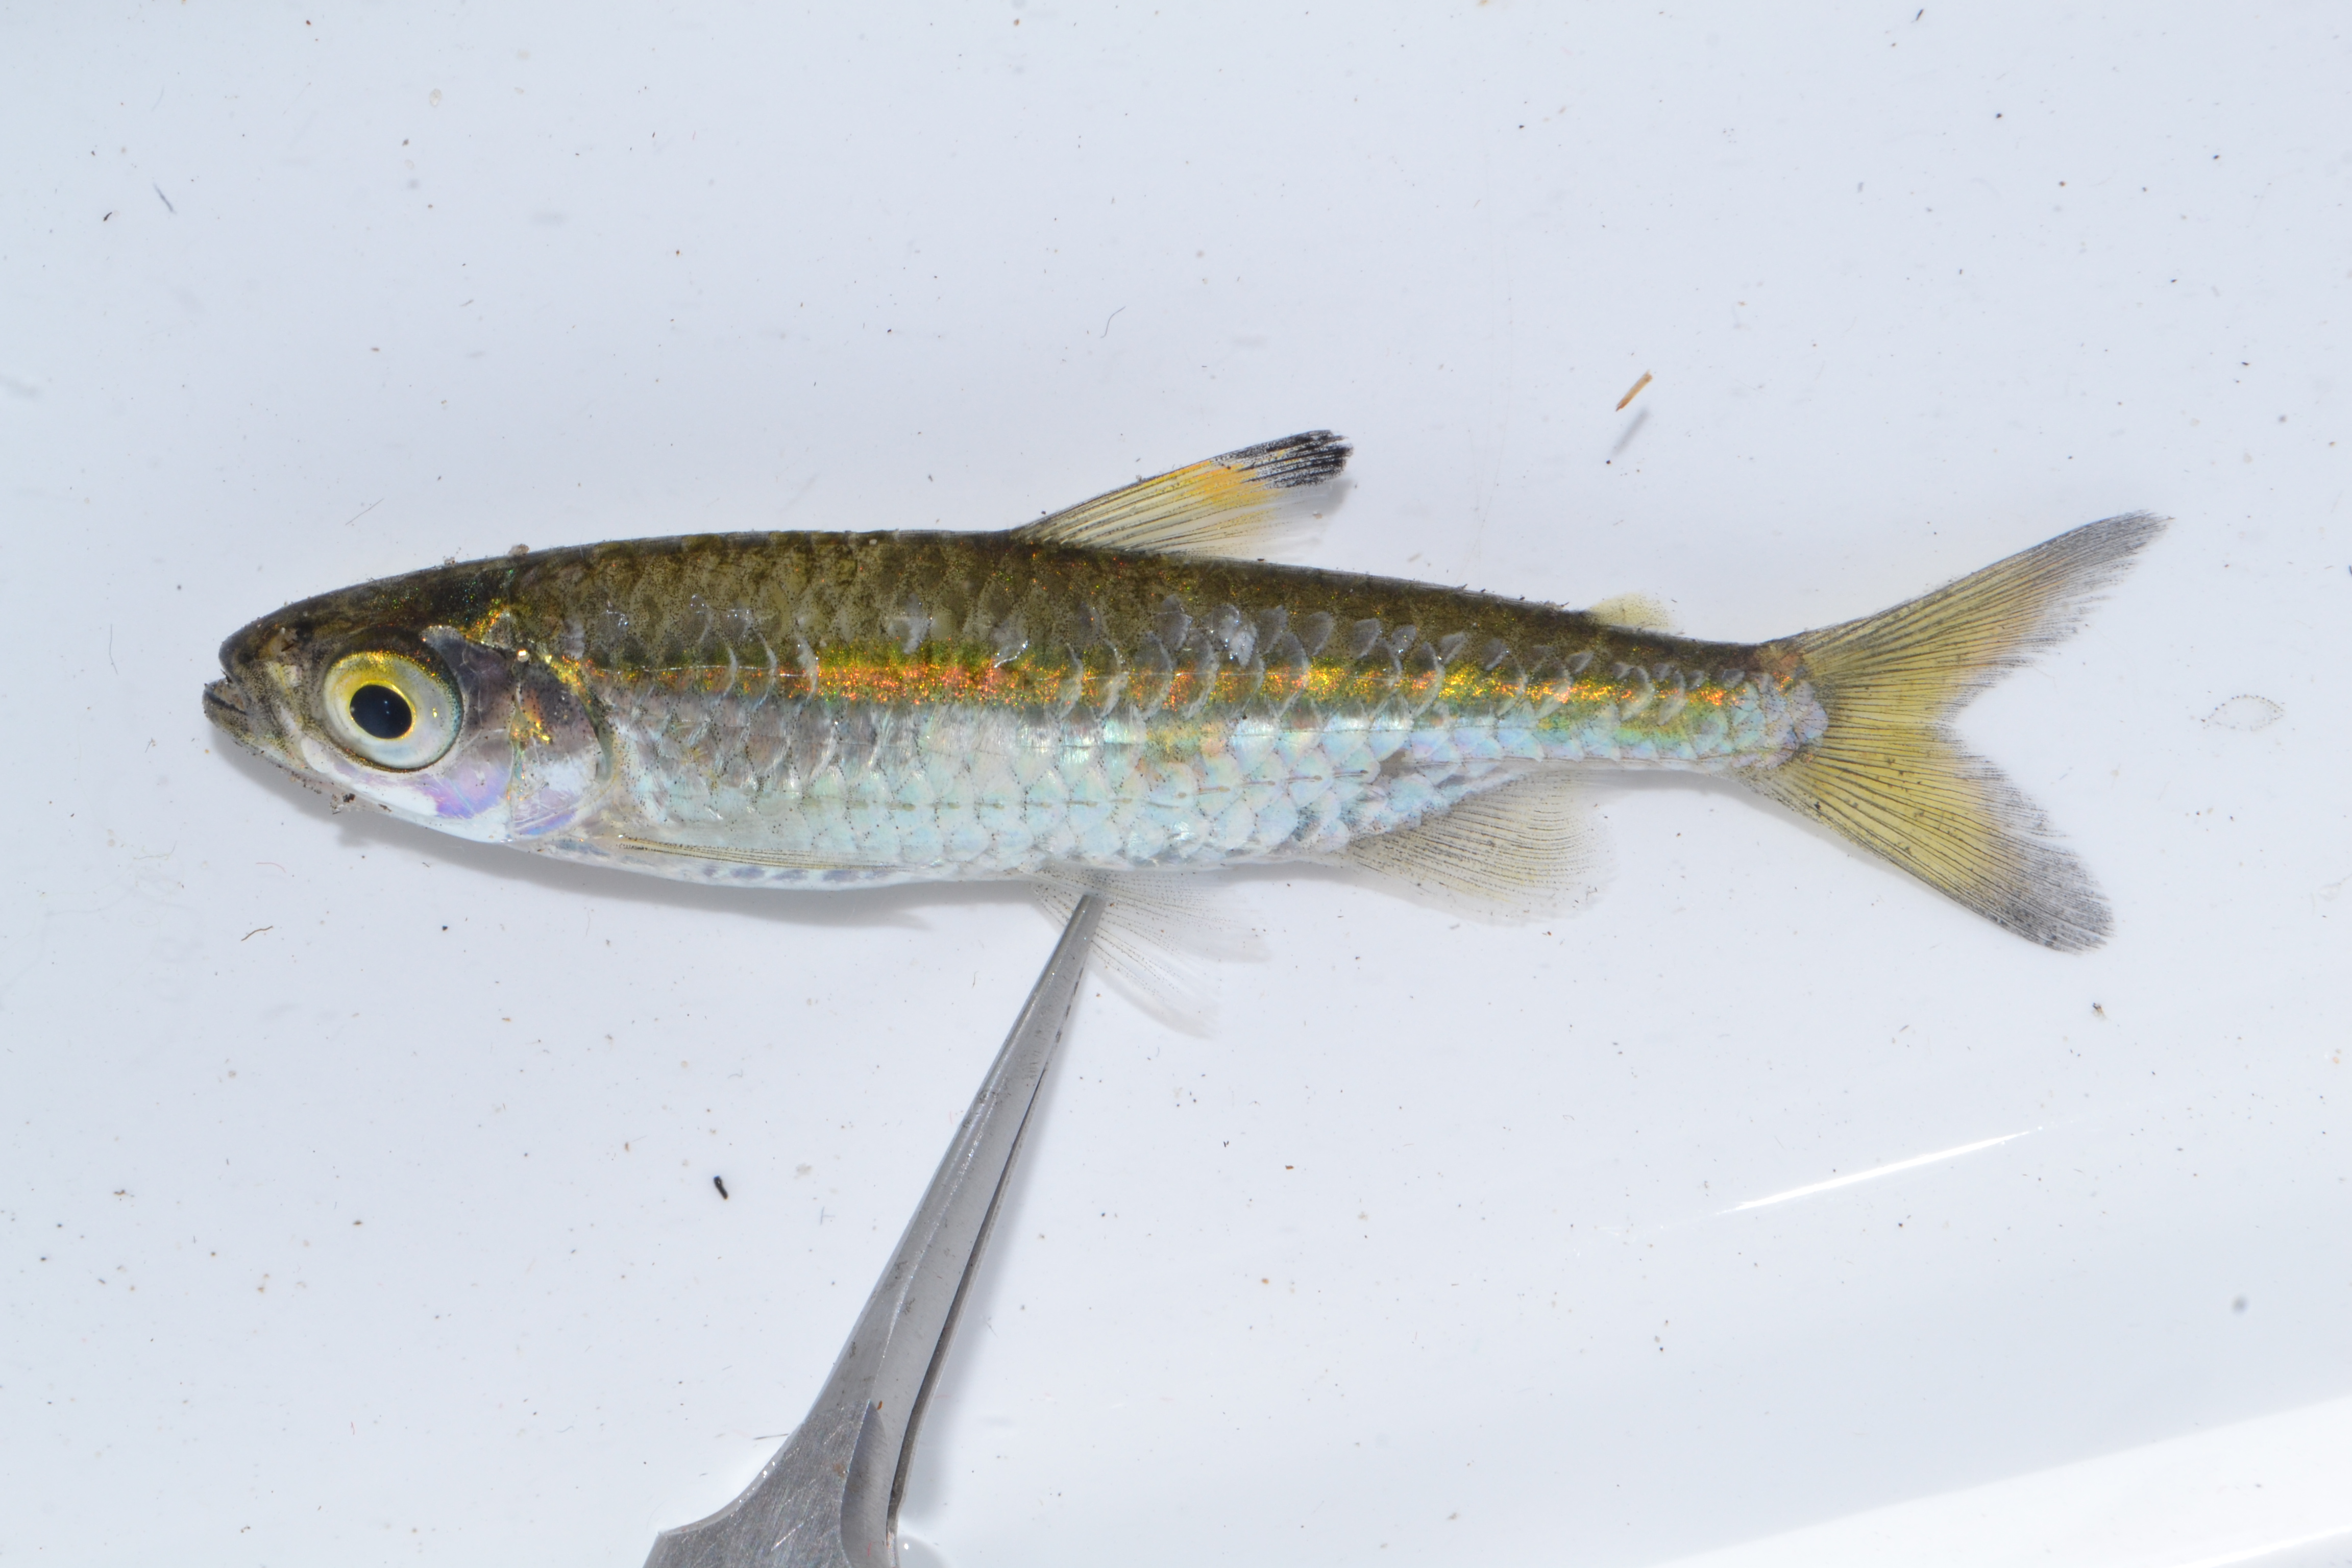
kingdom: Animalia
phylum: Chordata
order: Cypriniformes
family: Cyprinidae
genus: Enteromius
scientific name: Enteromius thamalakanensis
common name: Thamalakane barb
